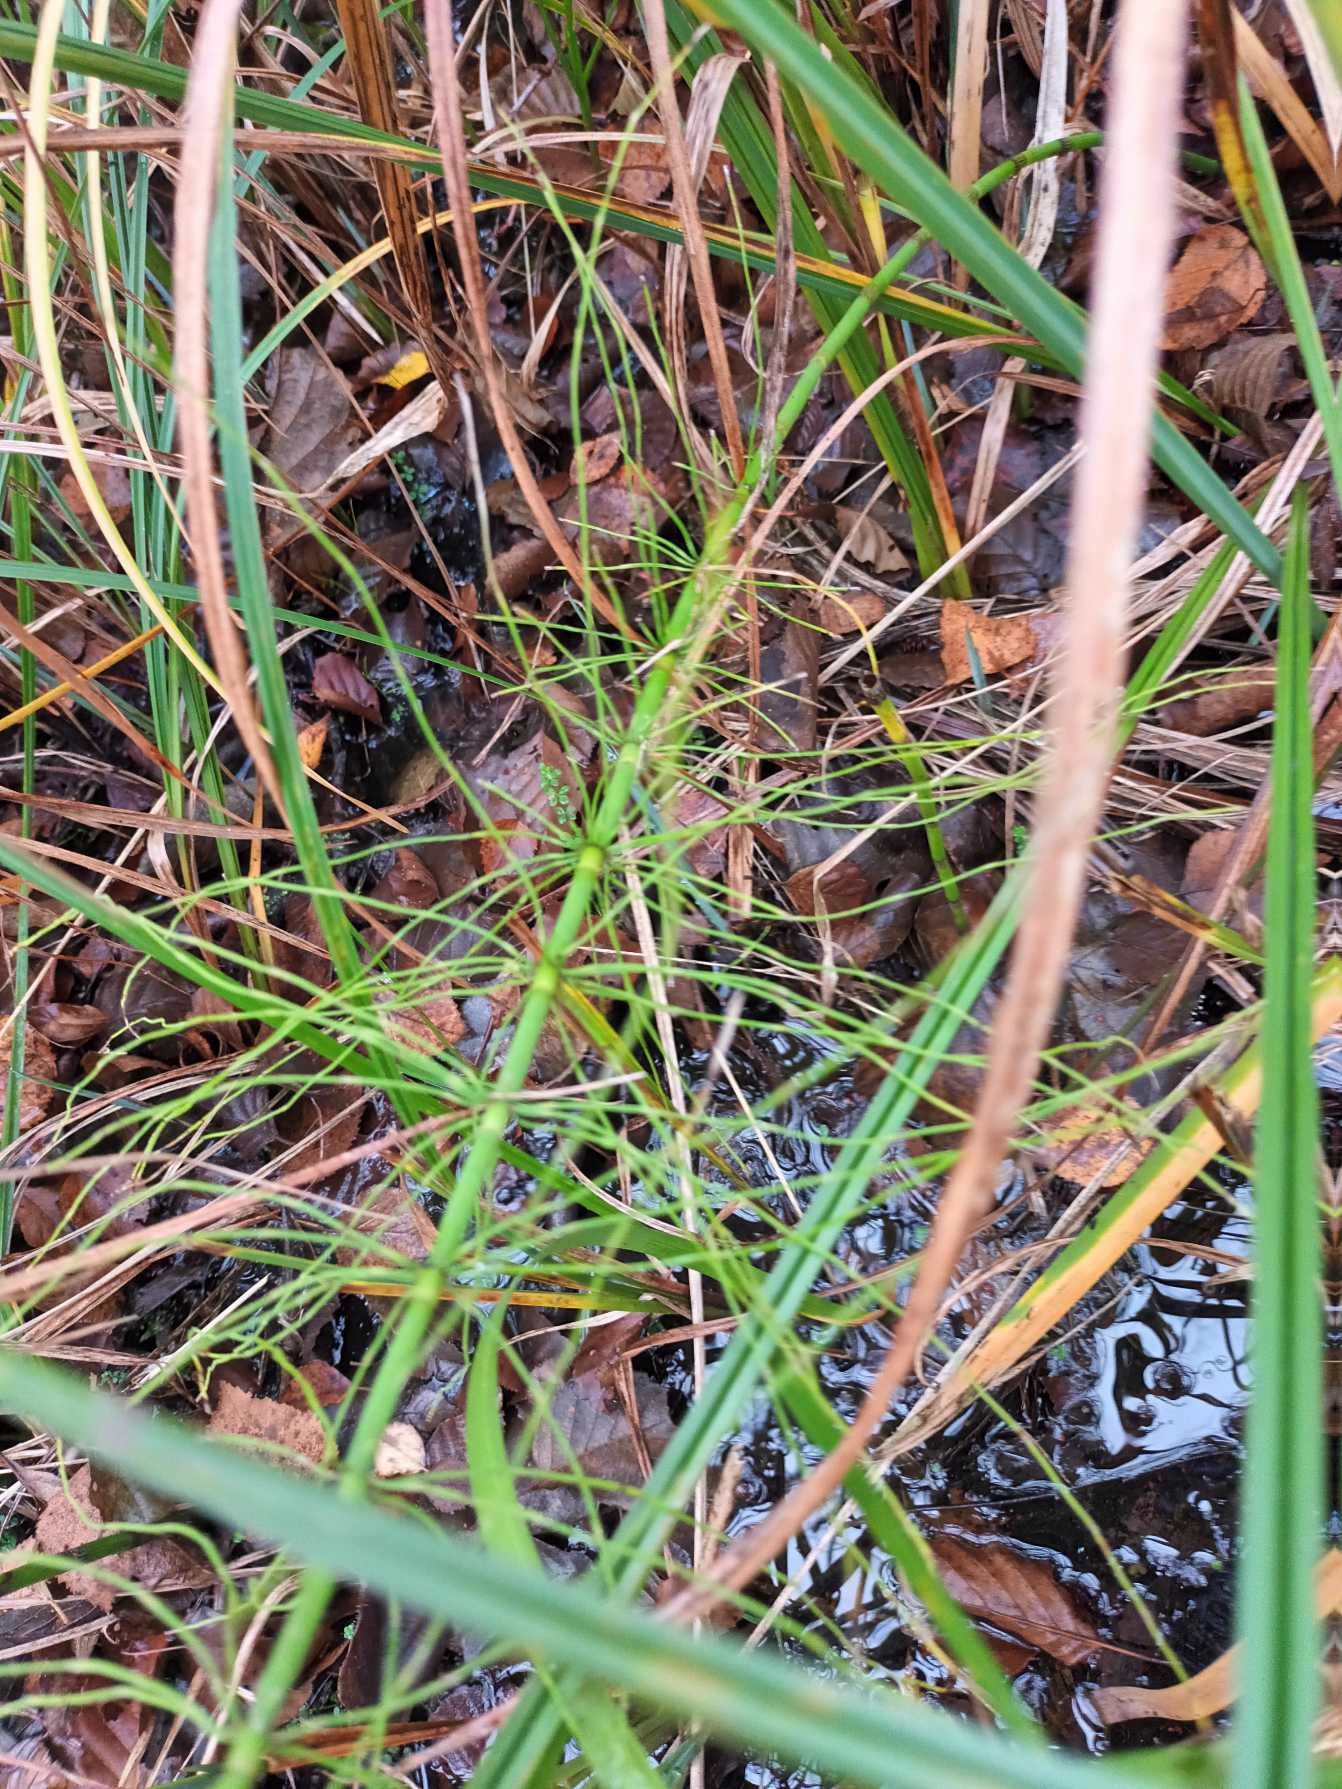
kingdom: Plantae
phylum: Tracheophyta
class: Polypodiopsida
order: Equisetales
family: Equisetaceae
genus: Equisetum
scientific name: Equisetum fluviatile
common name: Dynd-padderok
